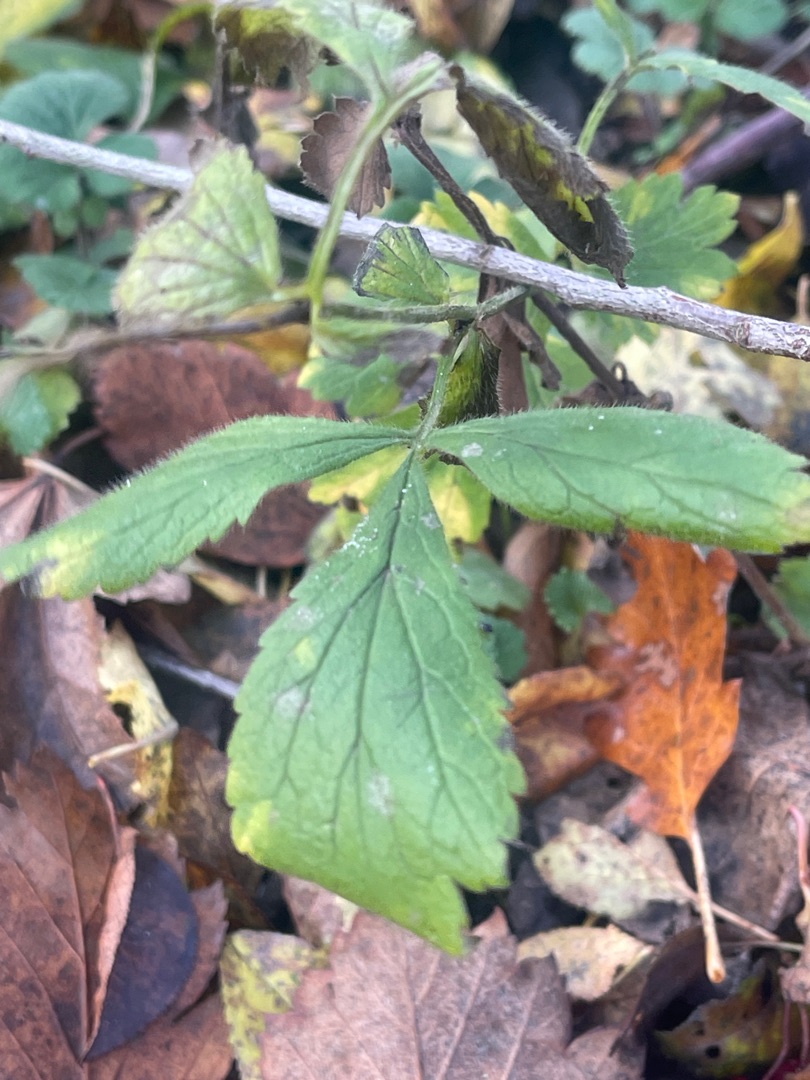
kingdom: Plantae
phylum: Tracheophyta
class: Magnoliopsida
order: Rosales
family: Rosaceae
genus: Geum
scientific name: Geum urbanum
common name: Feber-nellikerod
